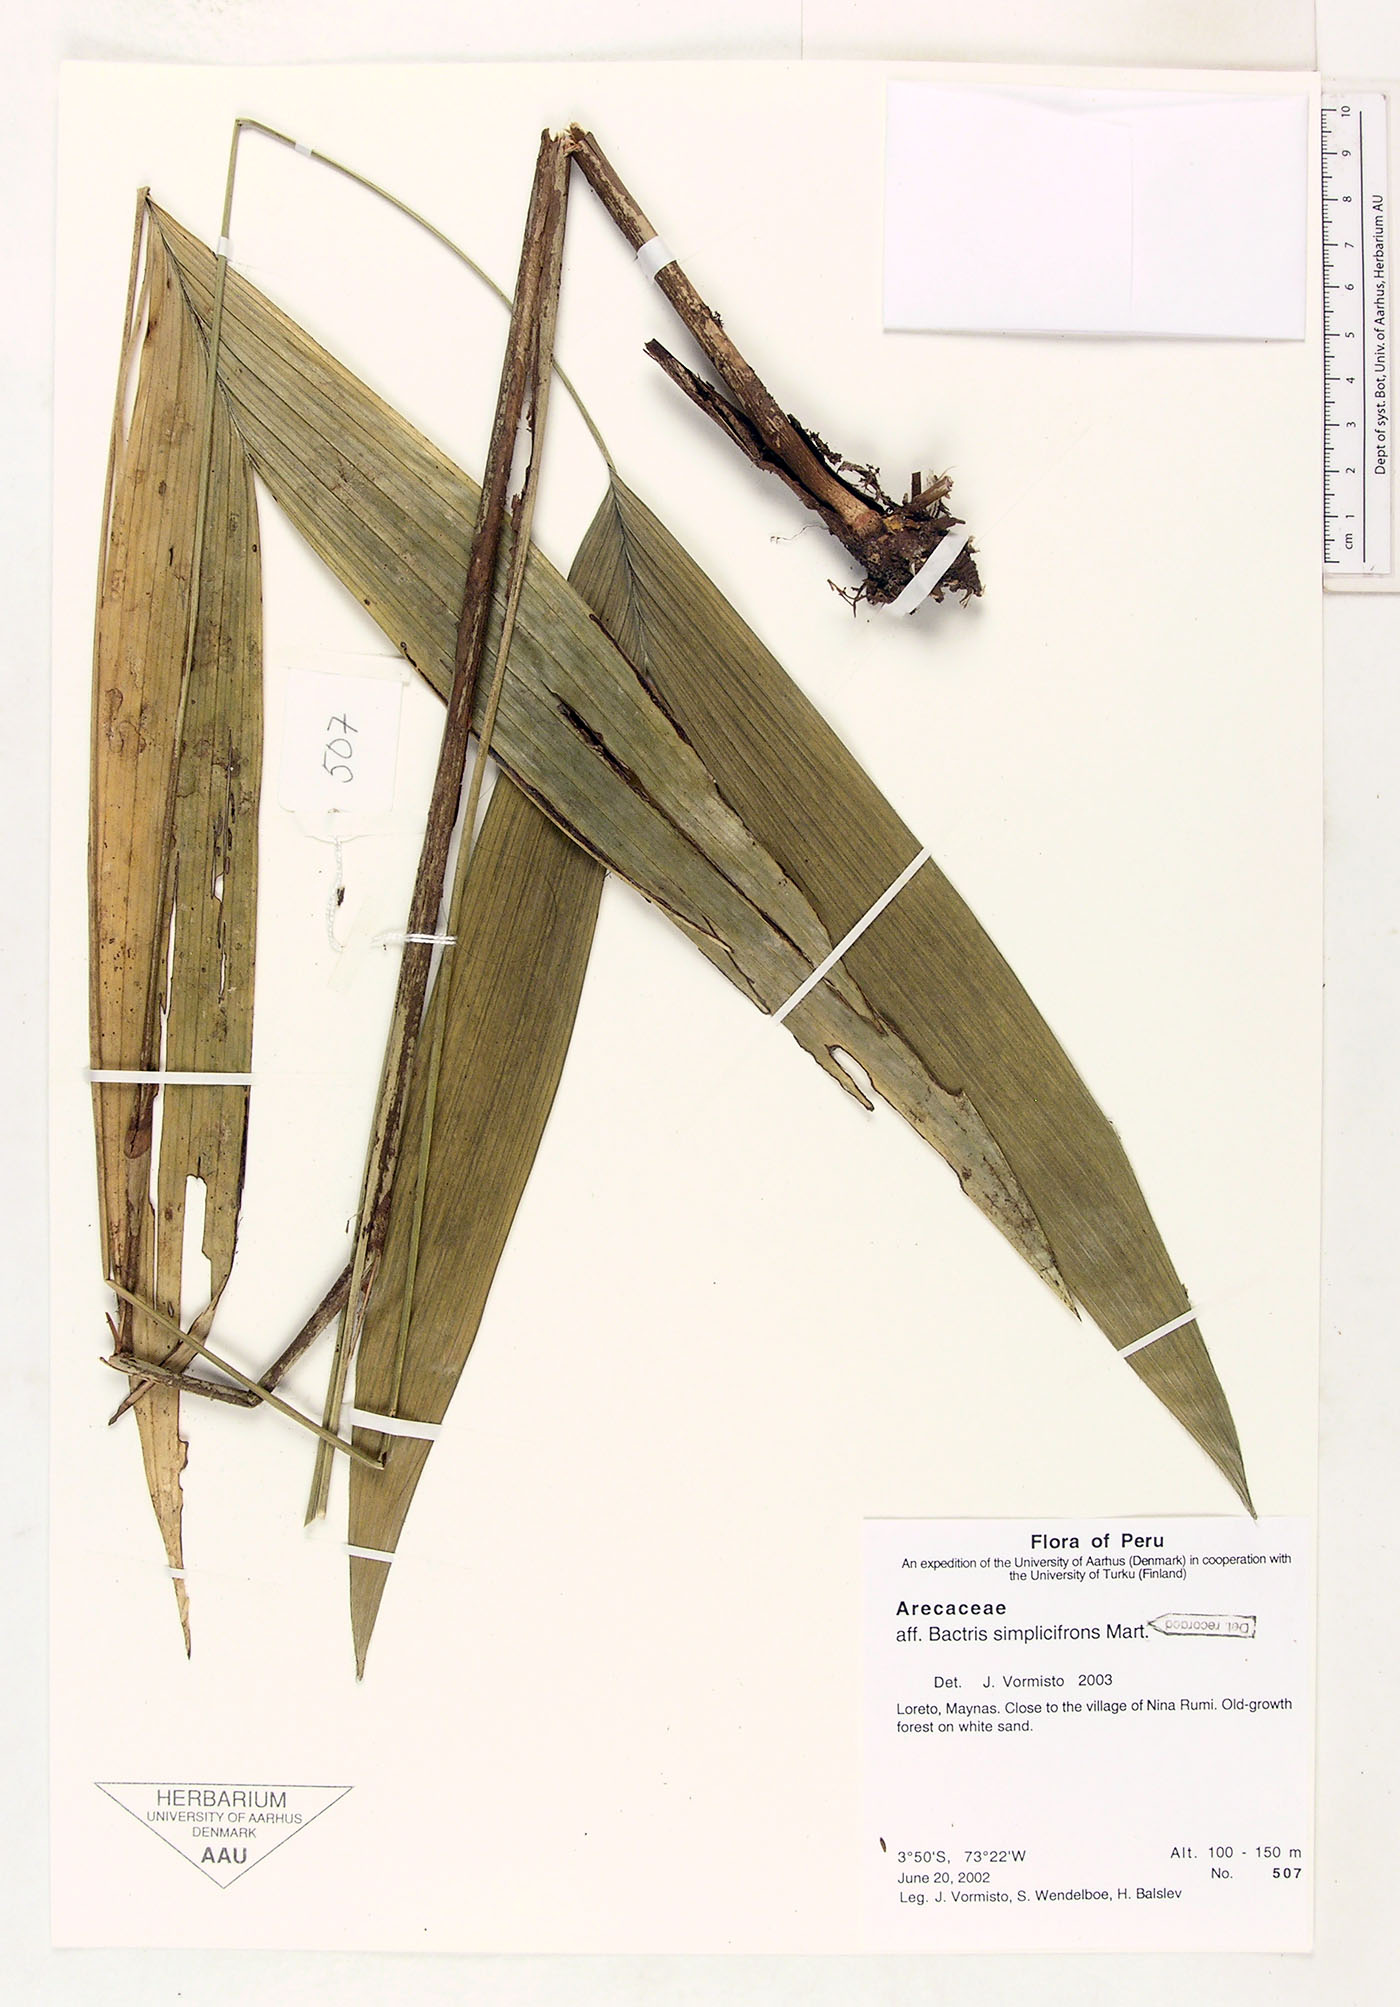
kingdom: Plantae
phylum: Tracheophyta
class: Liliopsida
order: Arecales
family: Arecaceae
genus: Bactris
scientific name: Bactris simplicifrons
